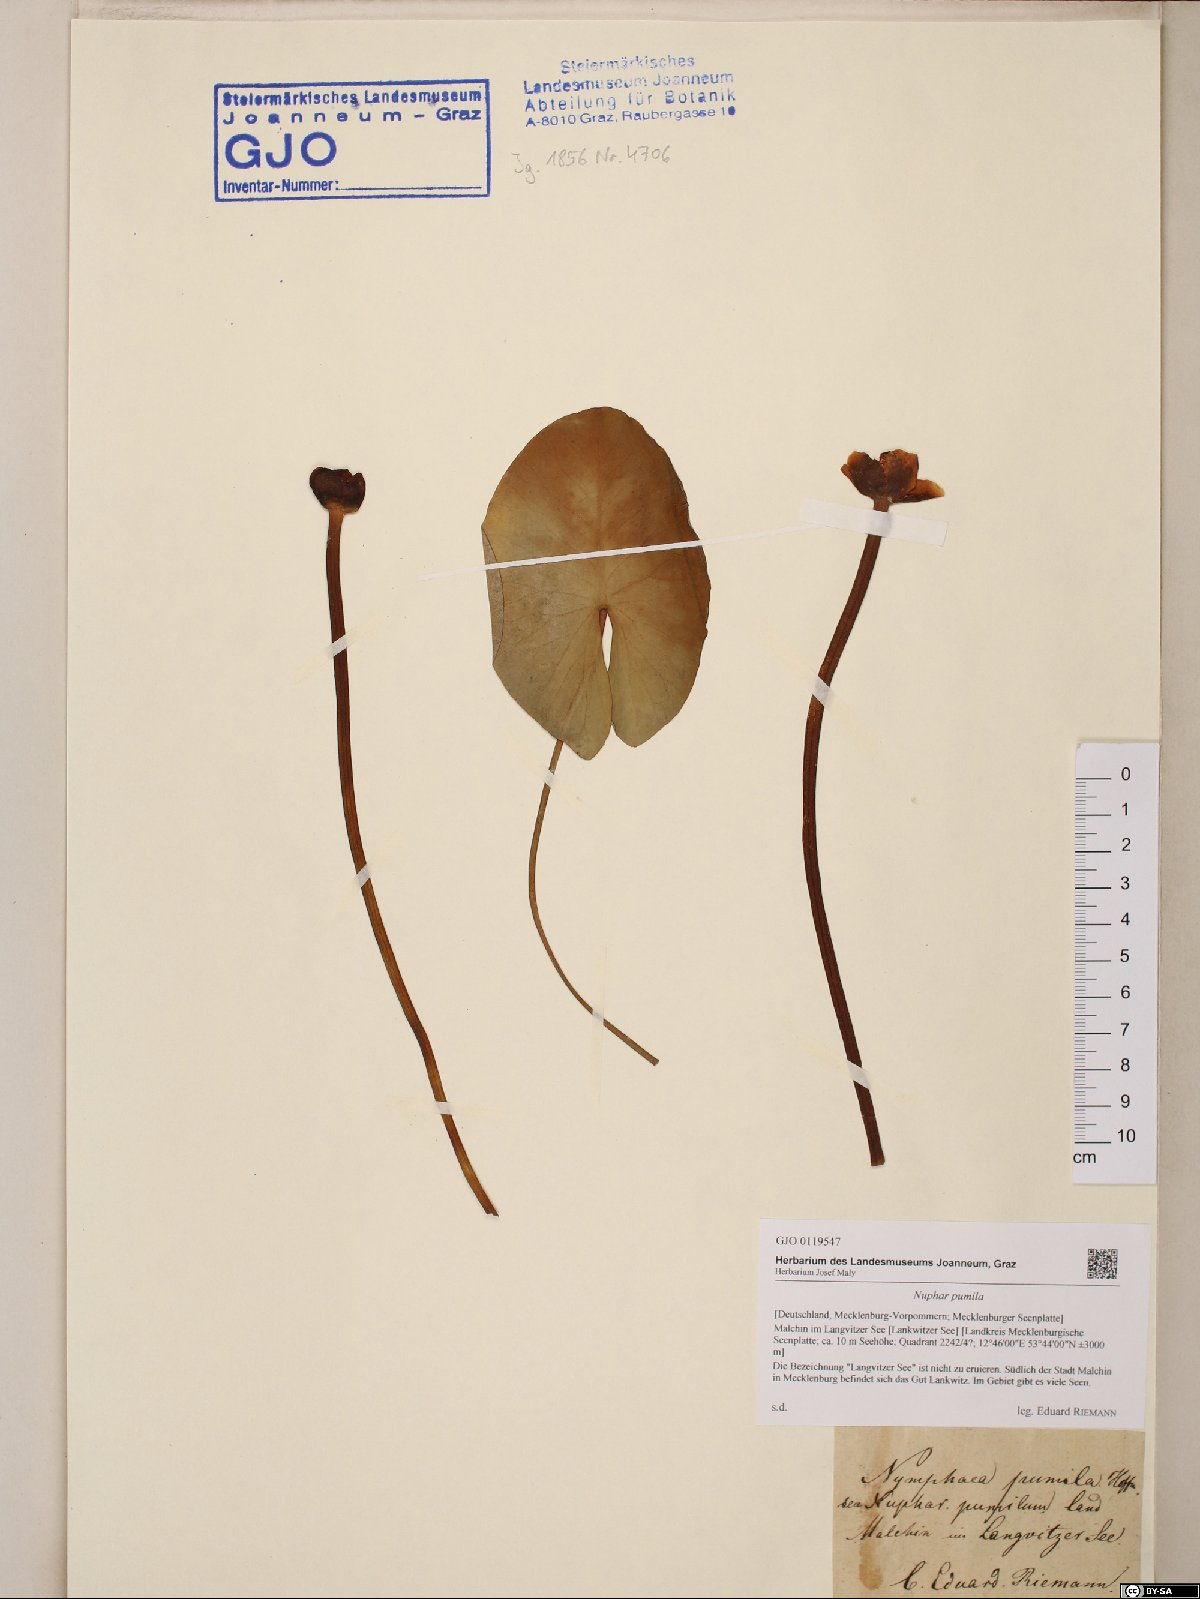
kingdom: Plantae
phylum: Tracheophyta
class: Magnoliopsida
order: Nymphaeales
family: Nymphaeaceae
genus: Nuphar
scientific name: Nuphar pumila
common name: Least water-lily
